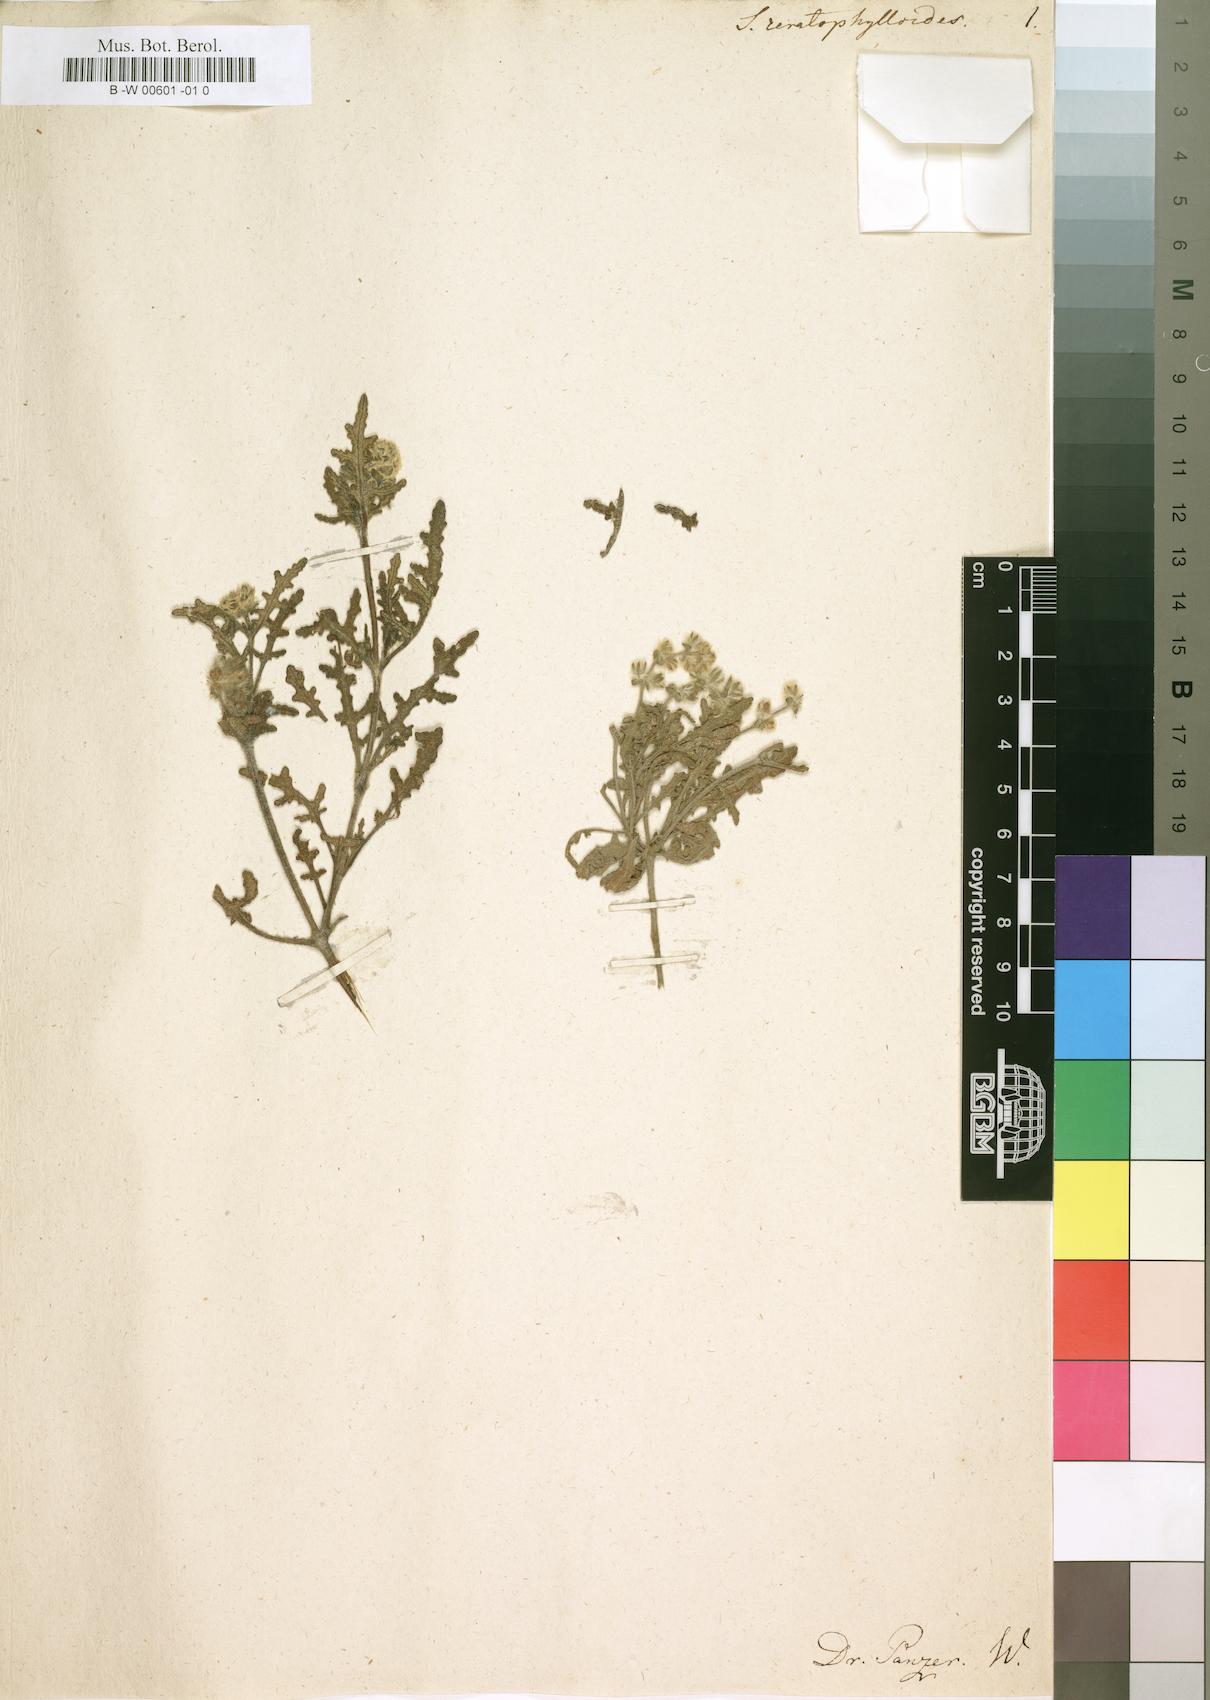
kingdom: Plantae
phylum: Tracheophyta
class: Magnoliopsida
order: Lamiales
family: Lamiaceae
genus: Salvia
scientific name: Salvia ceratophylloides
